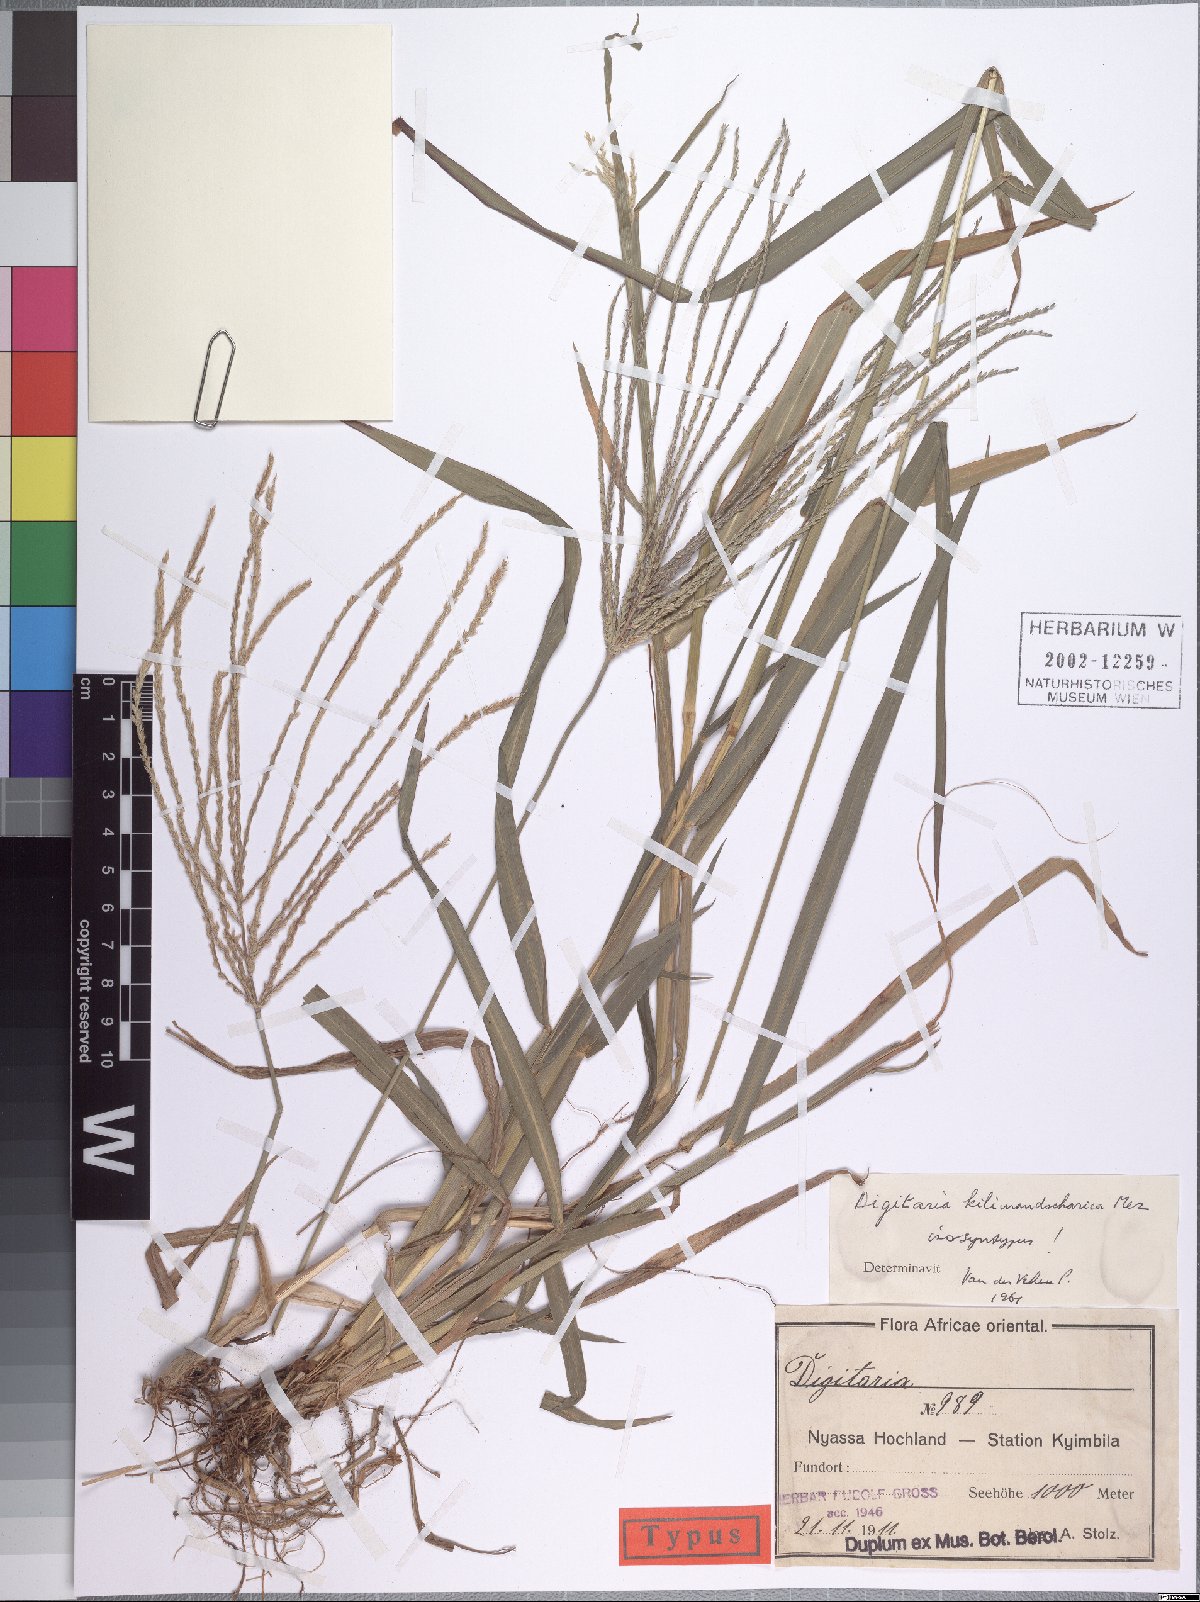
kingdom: Plantae
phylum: Tracheophyta
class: Liliopsida
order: Poales
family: Poaceae
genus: Digitaria
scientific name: Digitaria milanjiana
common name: Madagascar crabgrass
